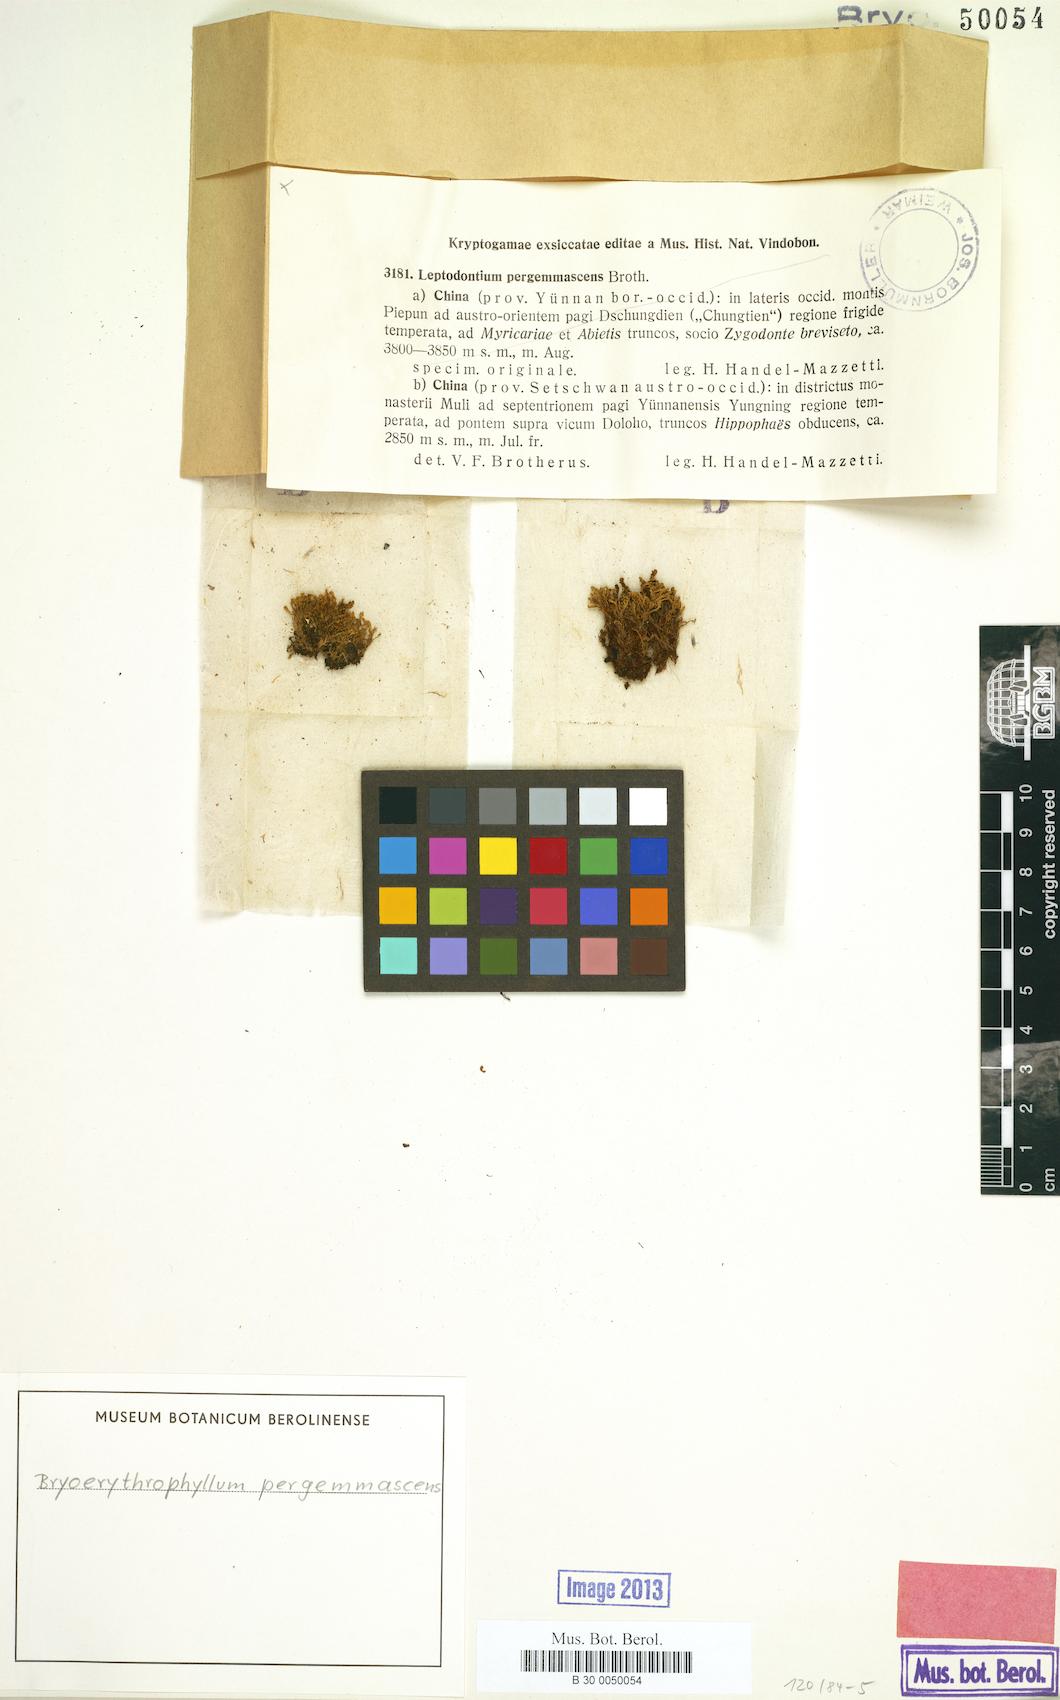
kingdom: Plantae
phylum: Bryophyta
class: Bryopsida
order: Pottiales
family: Pottiaceae
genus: Leptodontium
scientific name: Leptodontium flexifolium
